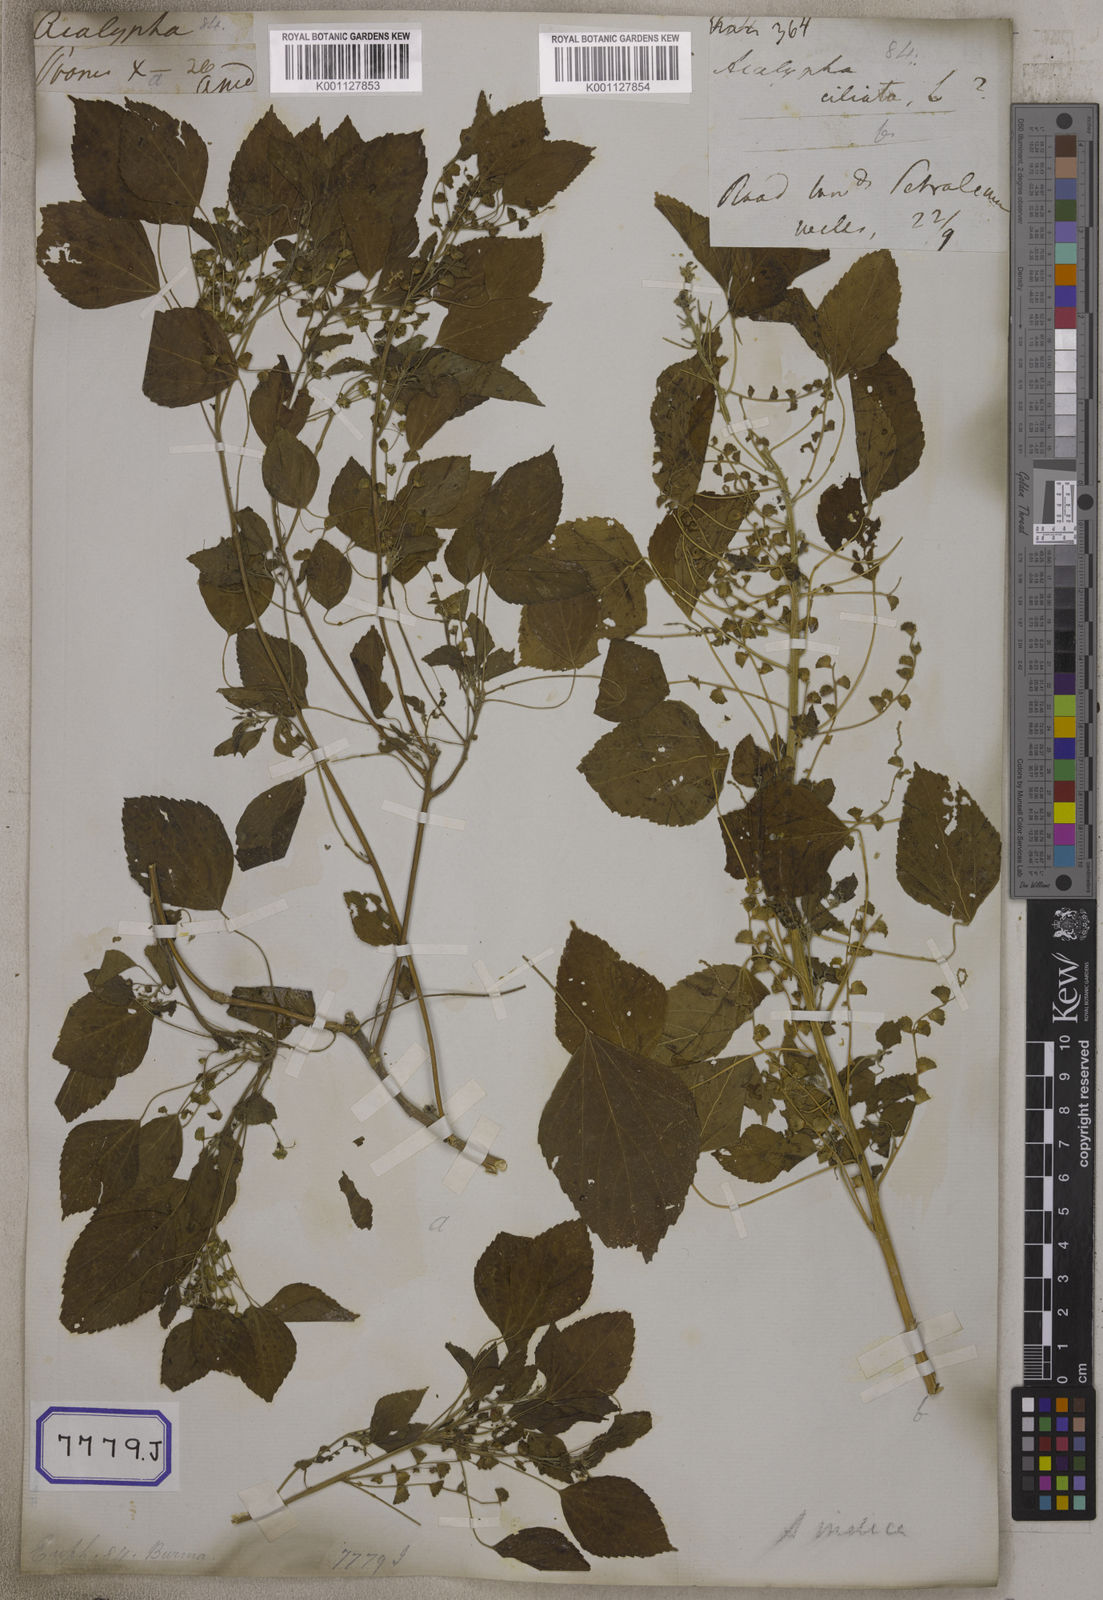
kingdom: Plantae
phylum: Tracheophyta
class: Magnoliopsida
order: Malpighiales
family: Euphorbiaceae
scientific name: Euphorbiaceae
